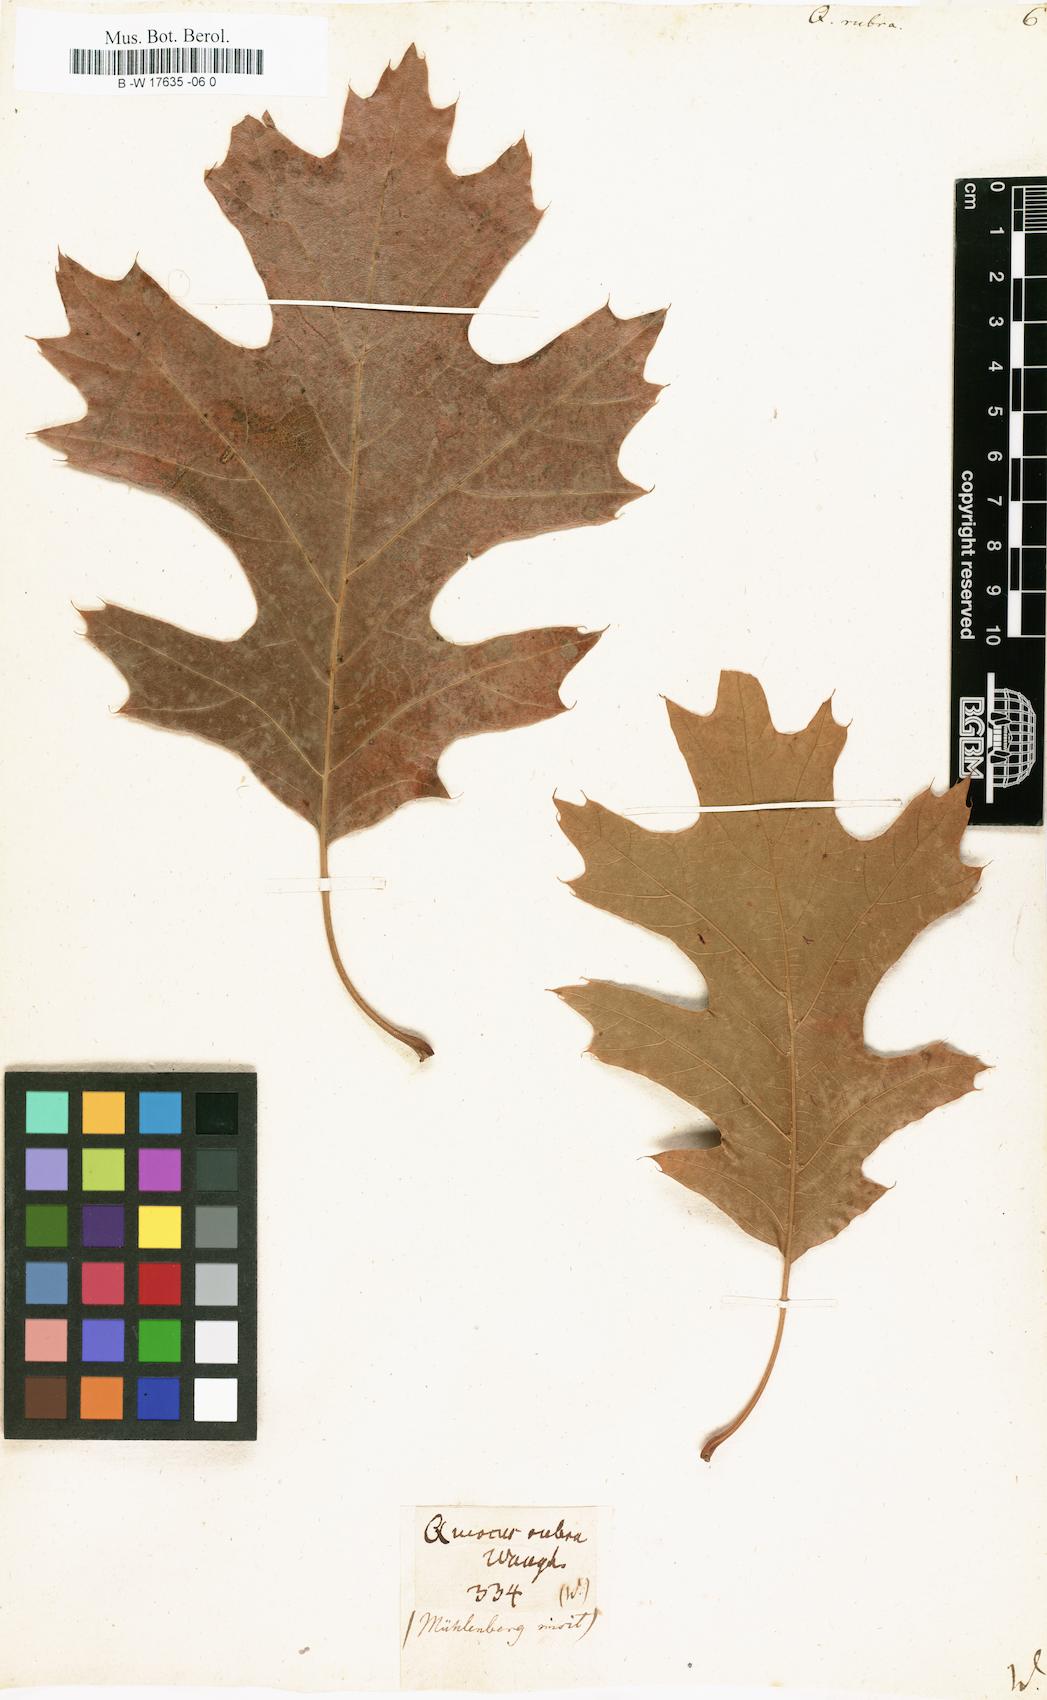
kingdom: Plantae
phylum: Tracheophyta
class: Magnoliopsida
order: Fagales
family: Fagaceae
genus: Quercus
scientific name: Quercus rubra
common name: Red oak
